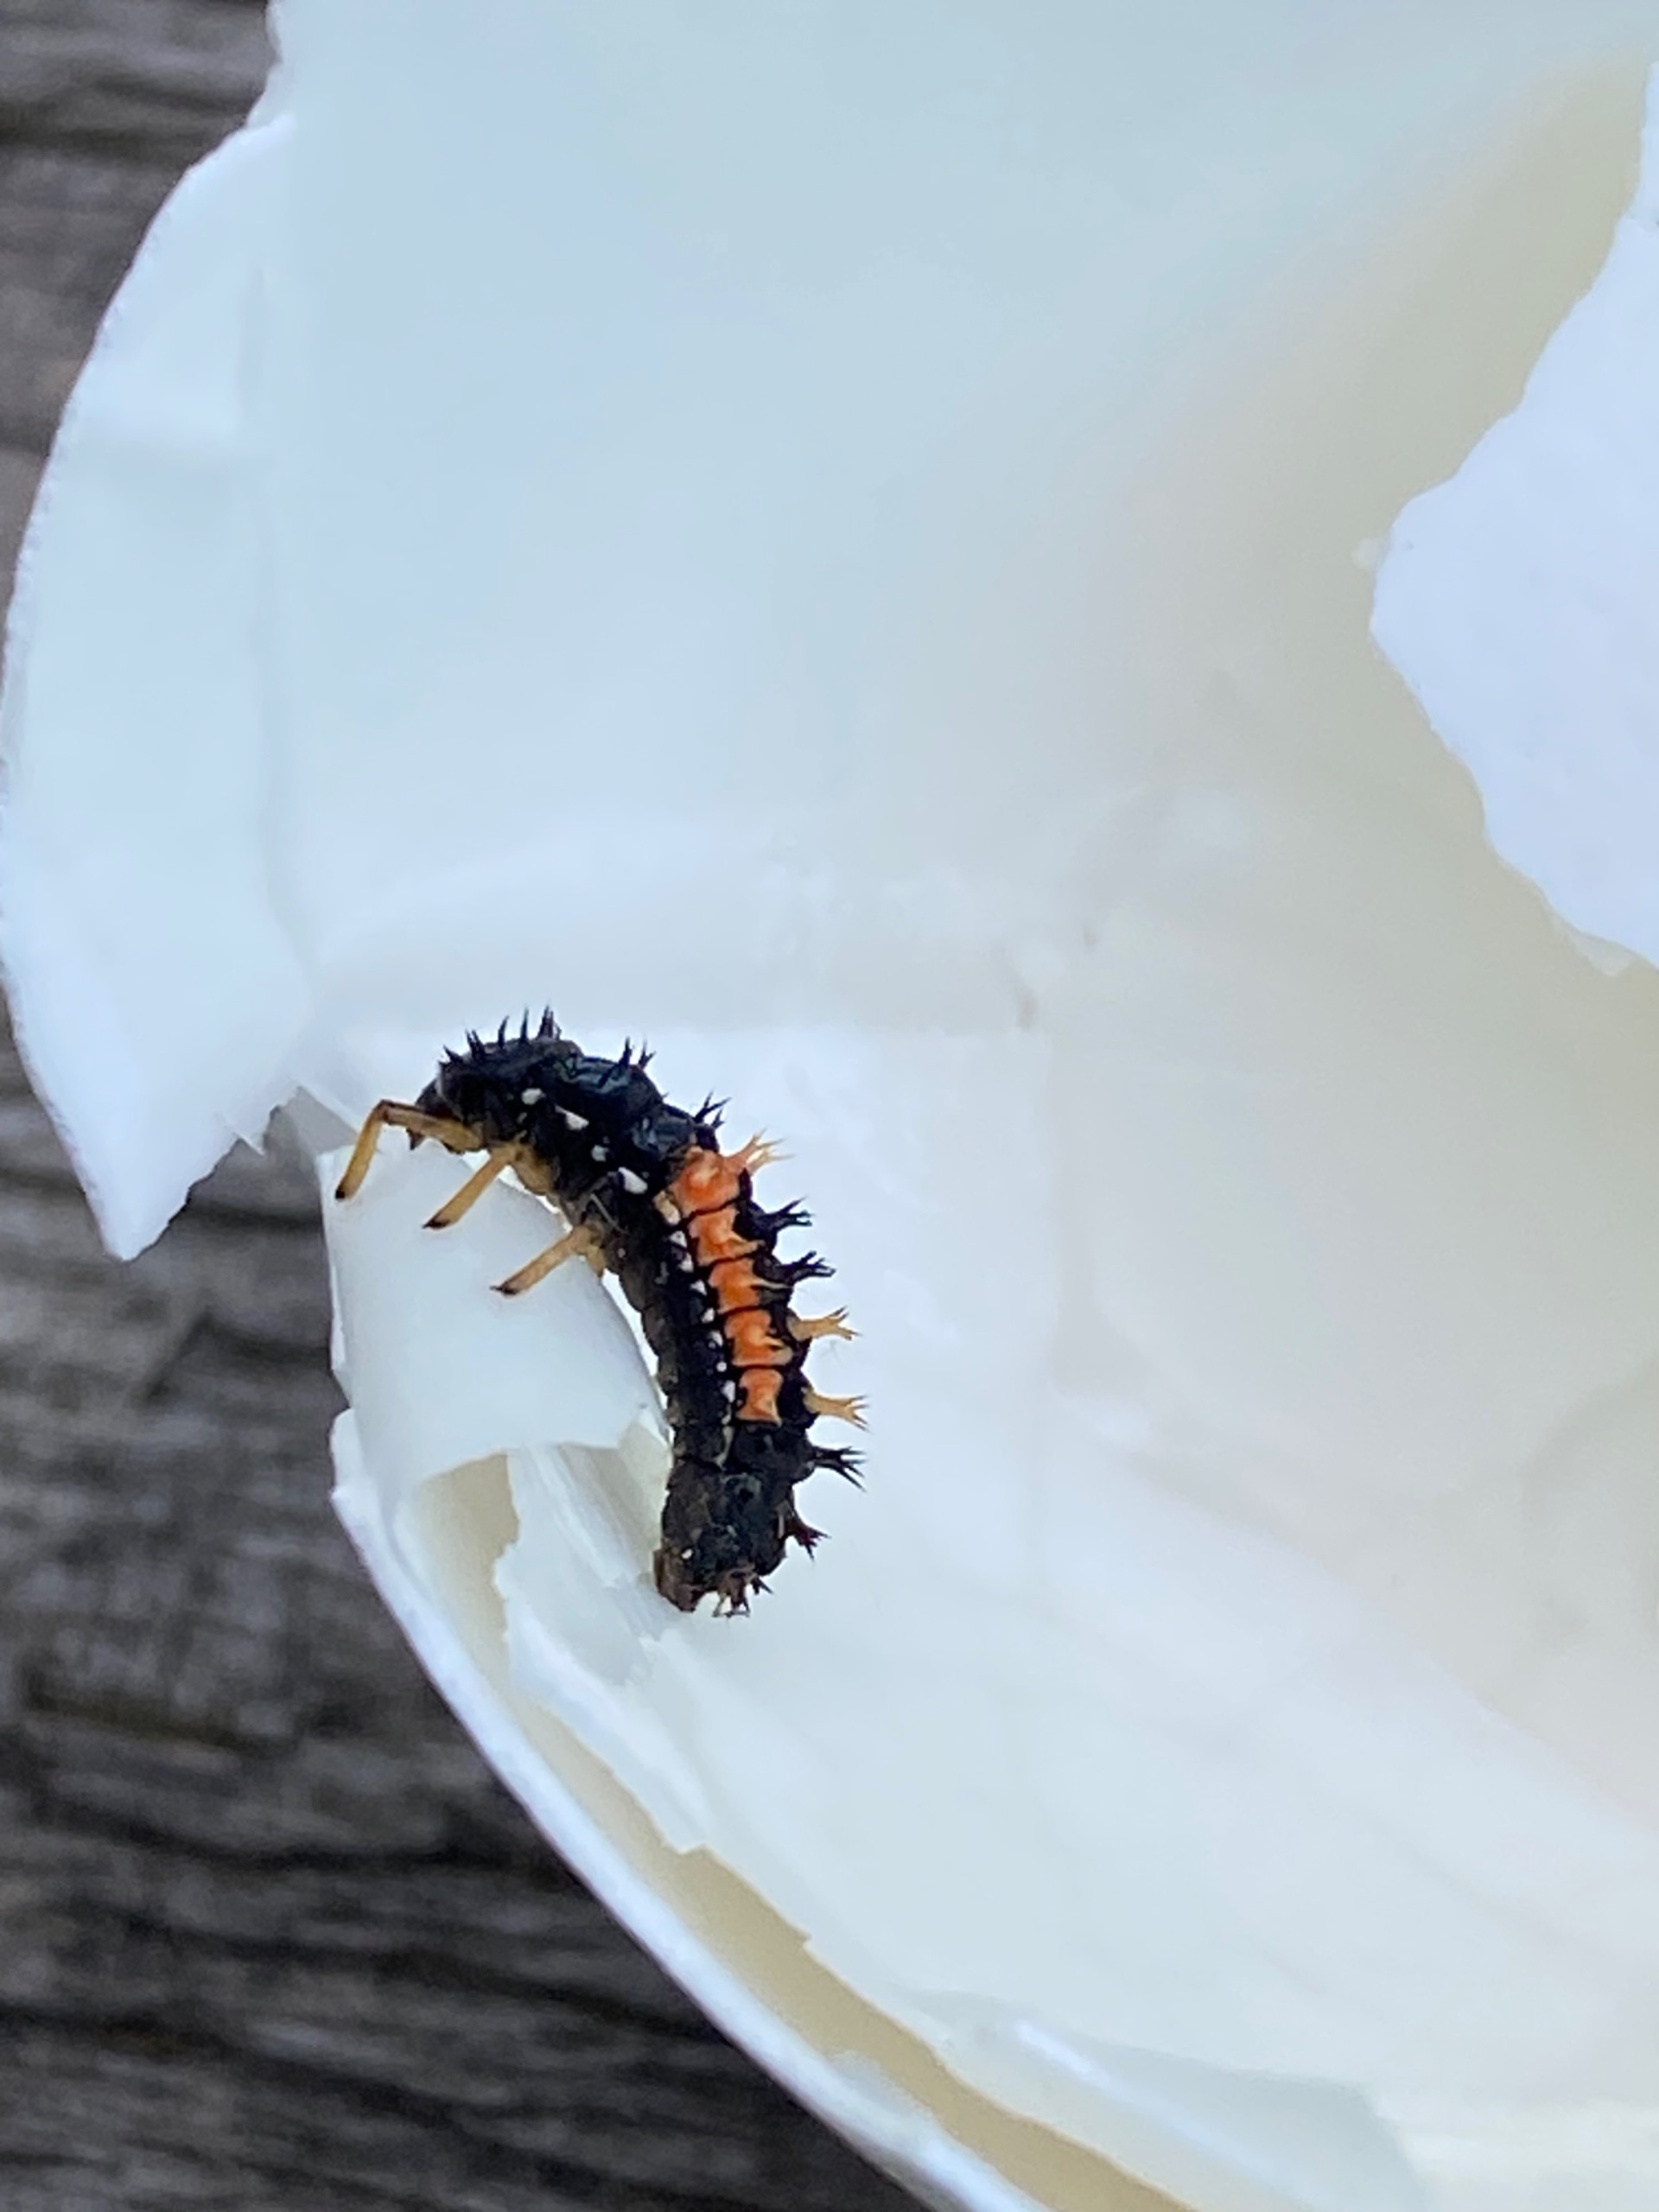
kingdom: Animalia
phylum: Arthropoda
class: Insecta
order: Coleoptera
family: Coccinellidae
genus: Harmonia
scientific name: Harmonia axyridis
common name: Harlekinmariehøne
